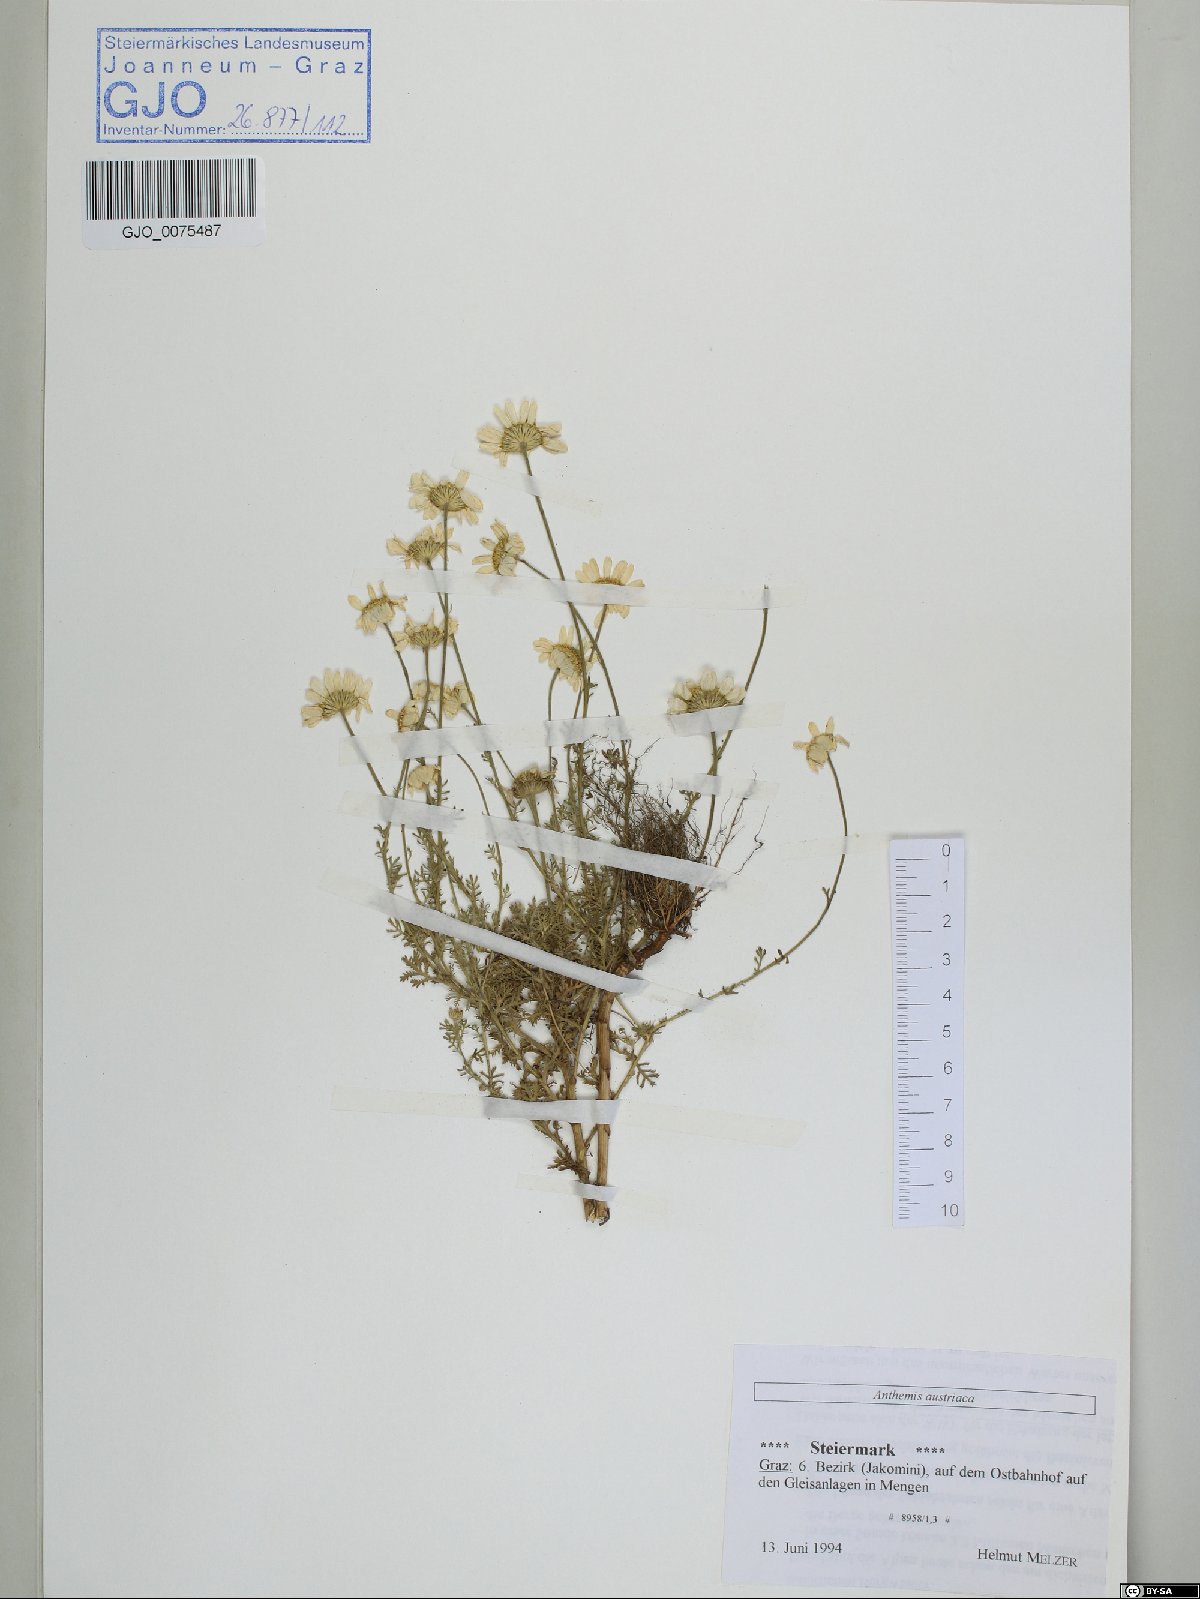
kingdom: Plantae
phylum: Tracheophyta
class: Magnoliopsida
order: Asterales
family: Asteraceae
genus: Cota
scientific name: Cota austriaca
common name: Austrian chamomile
